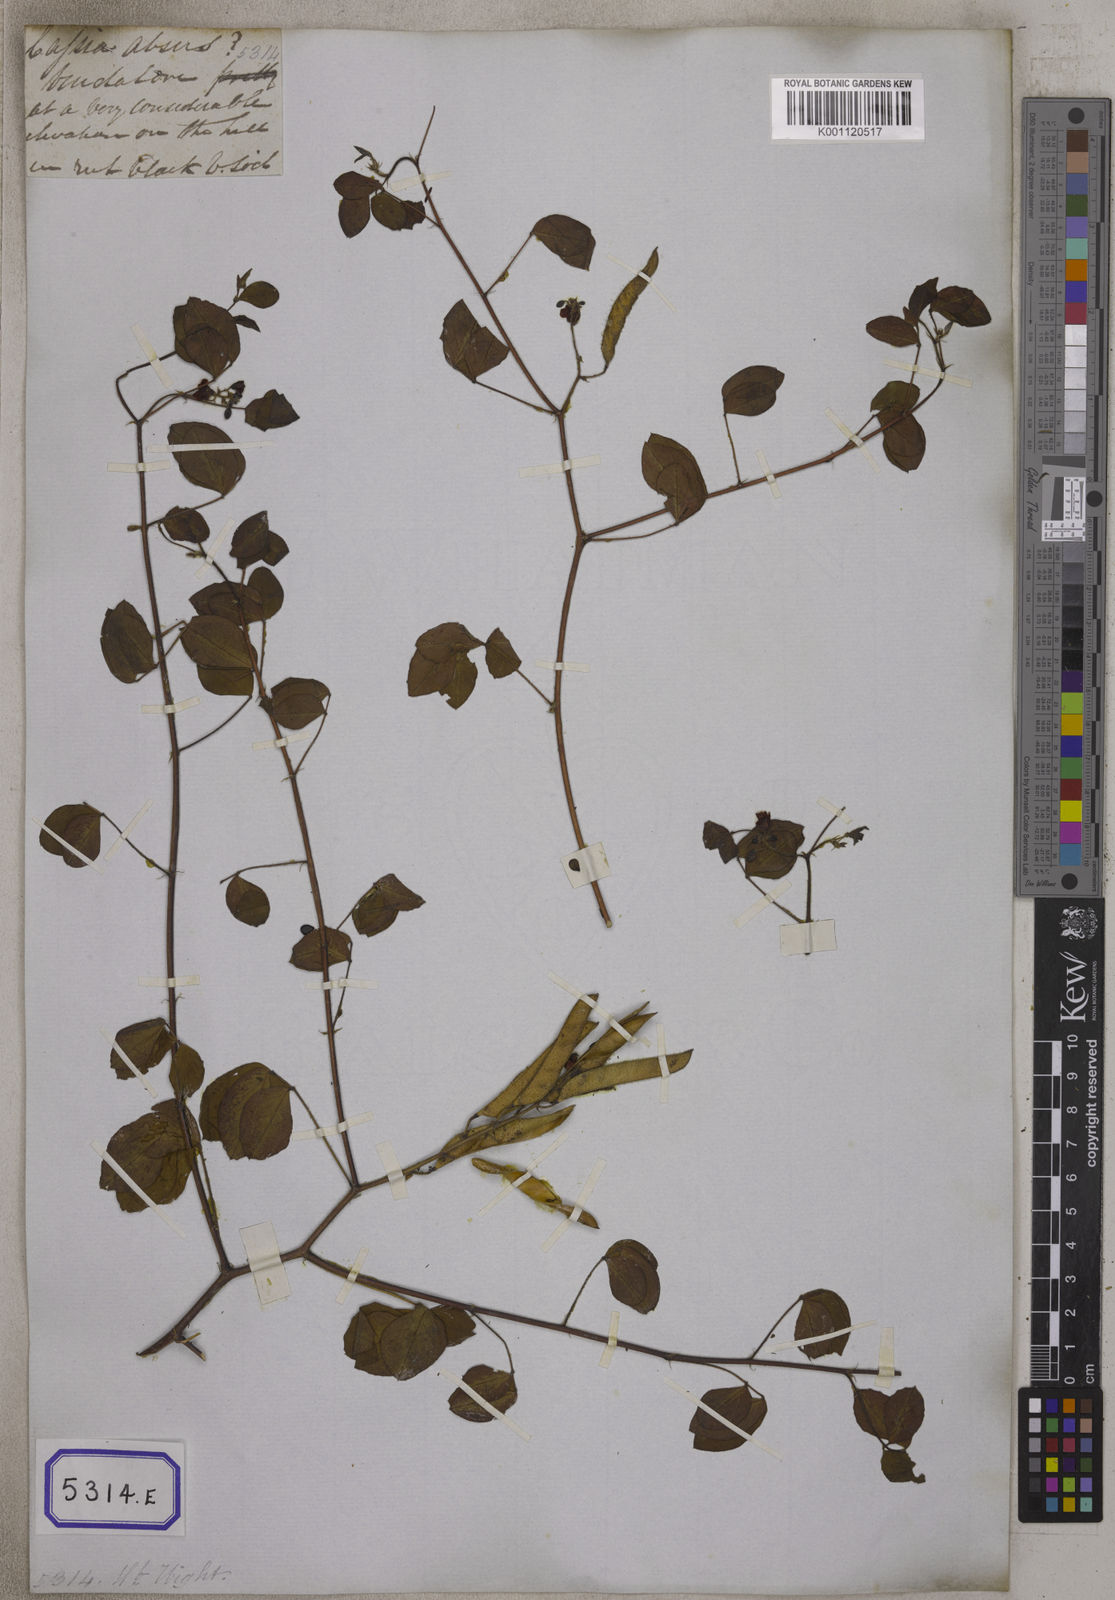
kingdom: Plantae
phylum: Tracheophyta
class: Magnoliopsida
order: Fabales
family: Fabaceae
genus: Chamaecrista
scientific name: Chamaecrista absus
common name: Tropical sensitive pea
